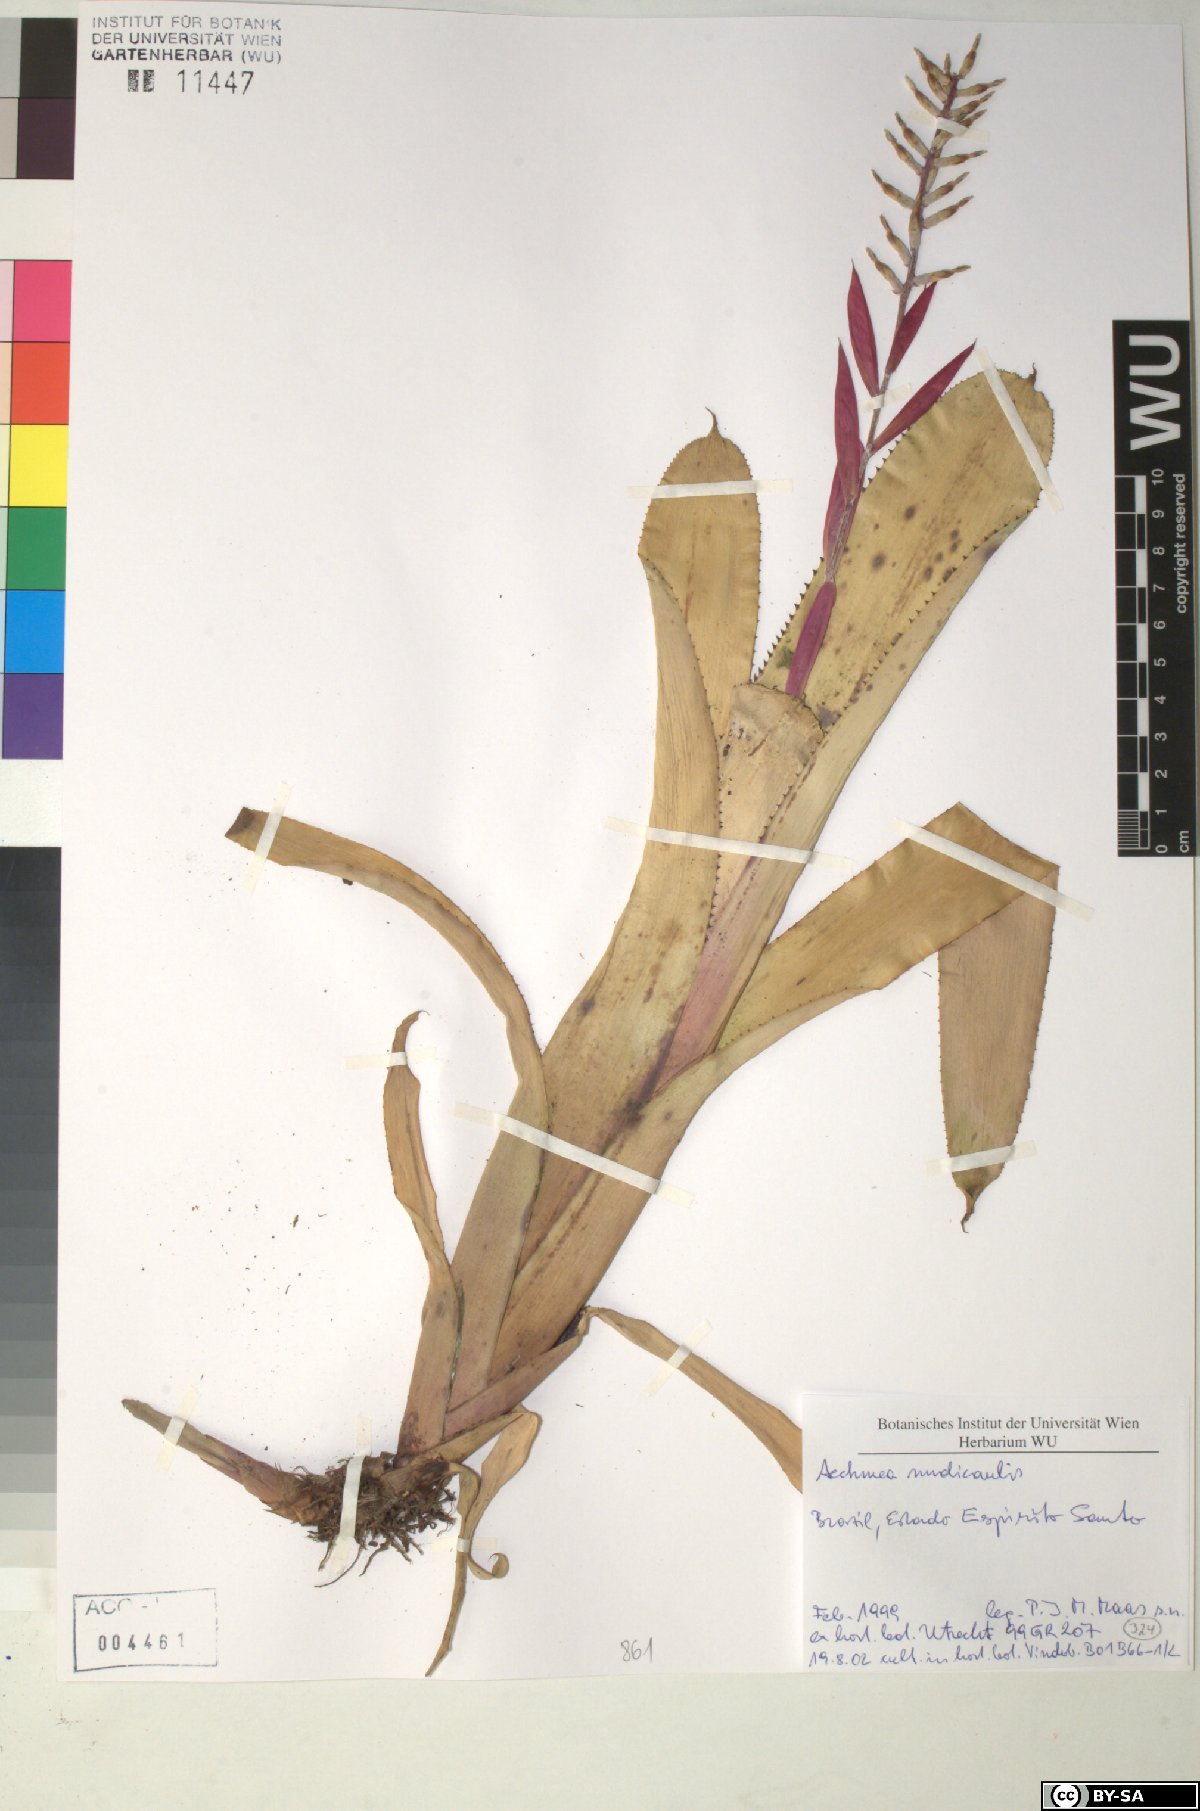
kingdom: Plantae
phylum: Tracheophyta
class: Liliopsida
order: Poales
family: Bromeliaceae
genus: Aechmea
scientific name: Aechmea nudicaulis
